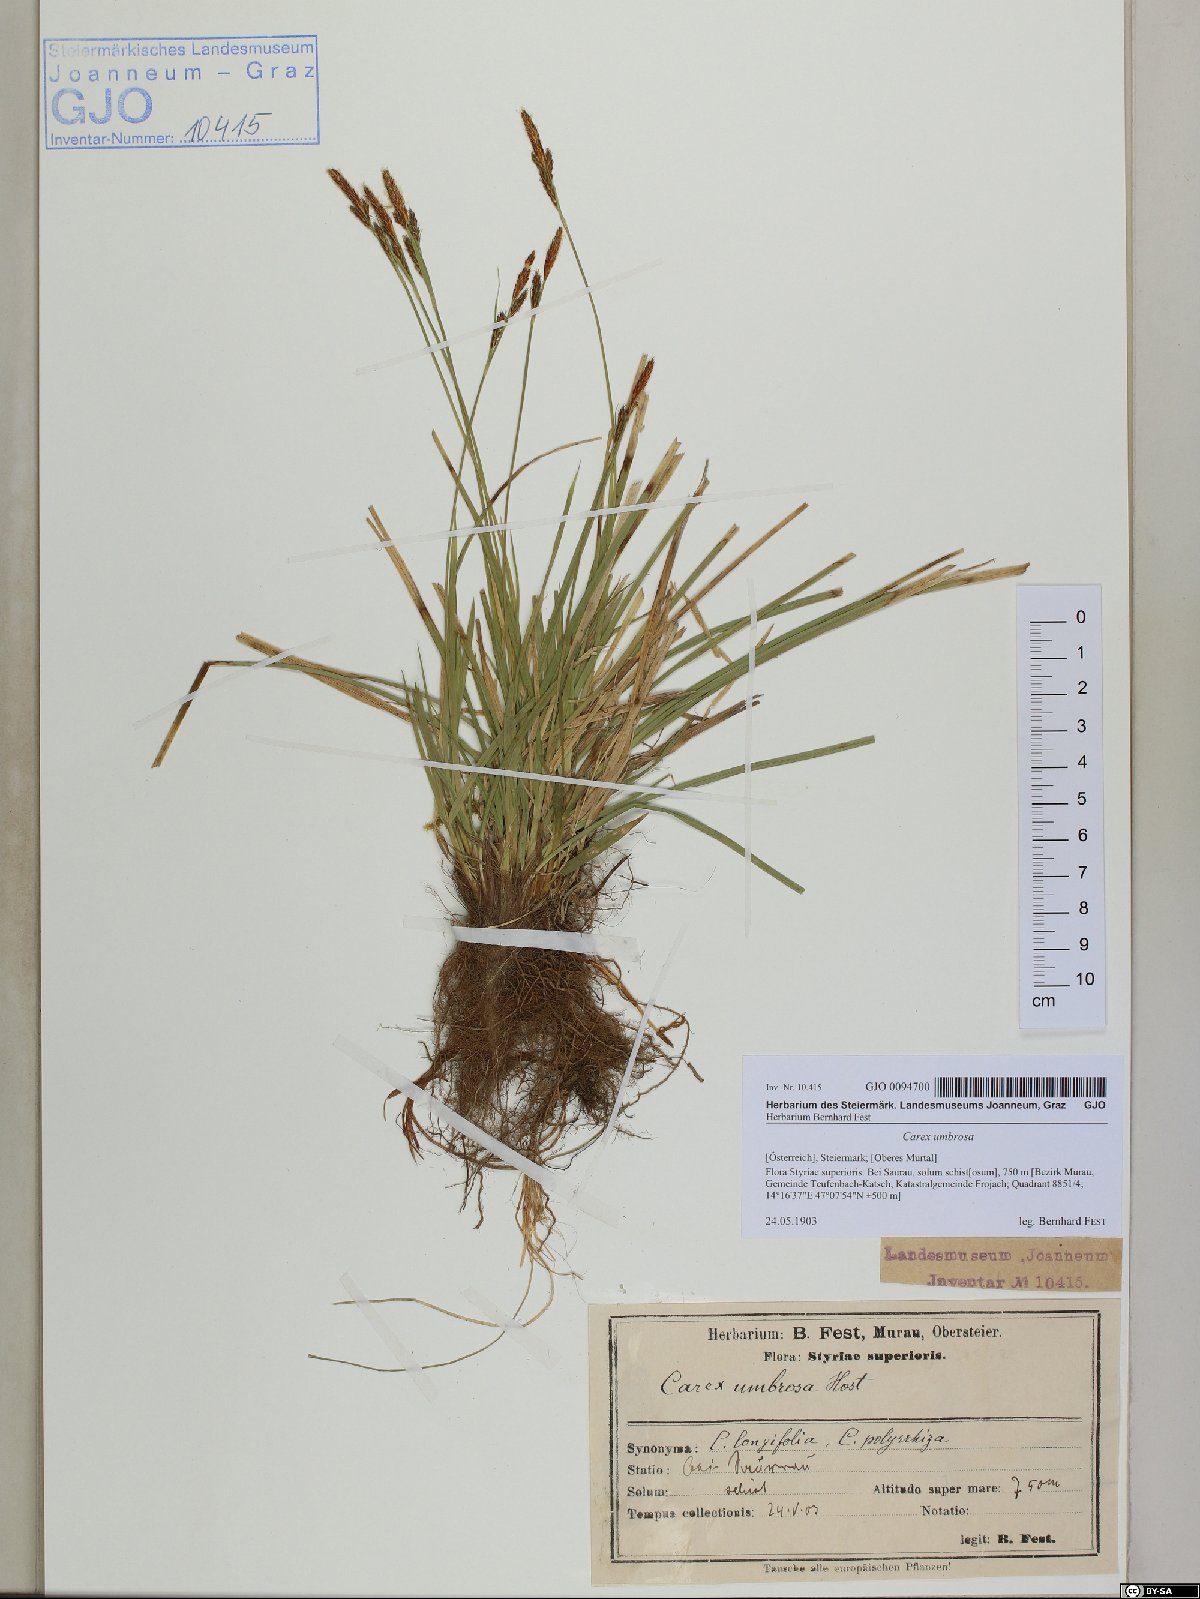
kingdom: Plantae
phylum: Tracheophyta
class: Liliopsida
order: Poales
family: Cyperaceae
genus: Carex
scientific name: Carex umbrosa
